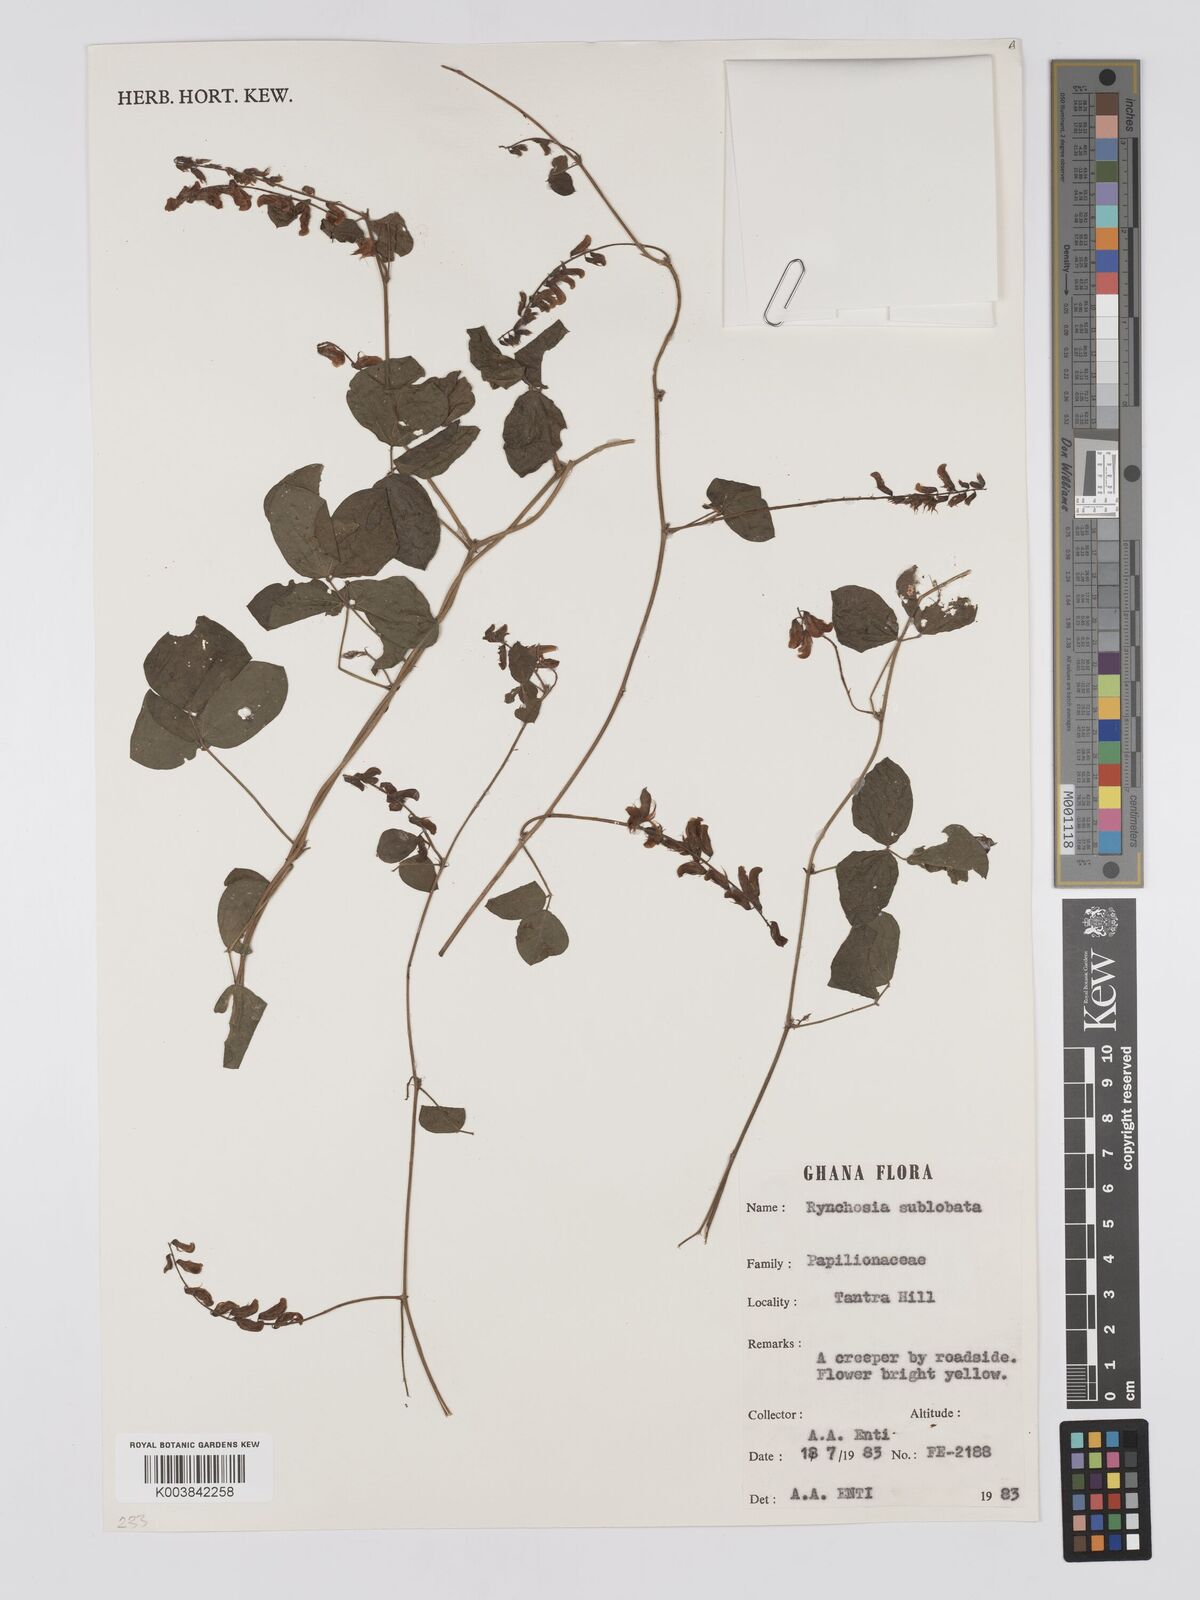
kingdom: Plantae
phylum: Tracheophyta
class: Magnoliopsida
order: Fabales
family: Fabaceae
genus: Rhynchosia
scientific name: Rhynchosia sublobata
